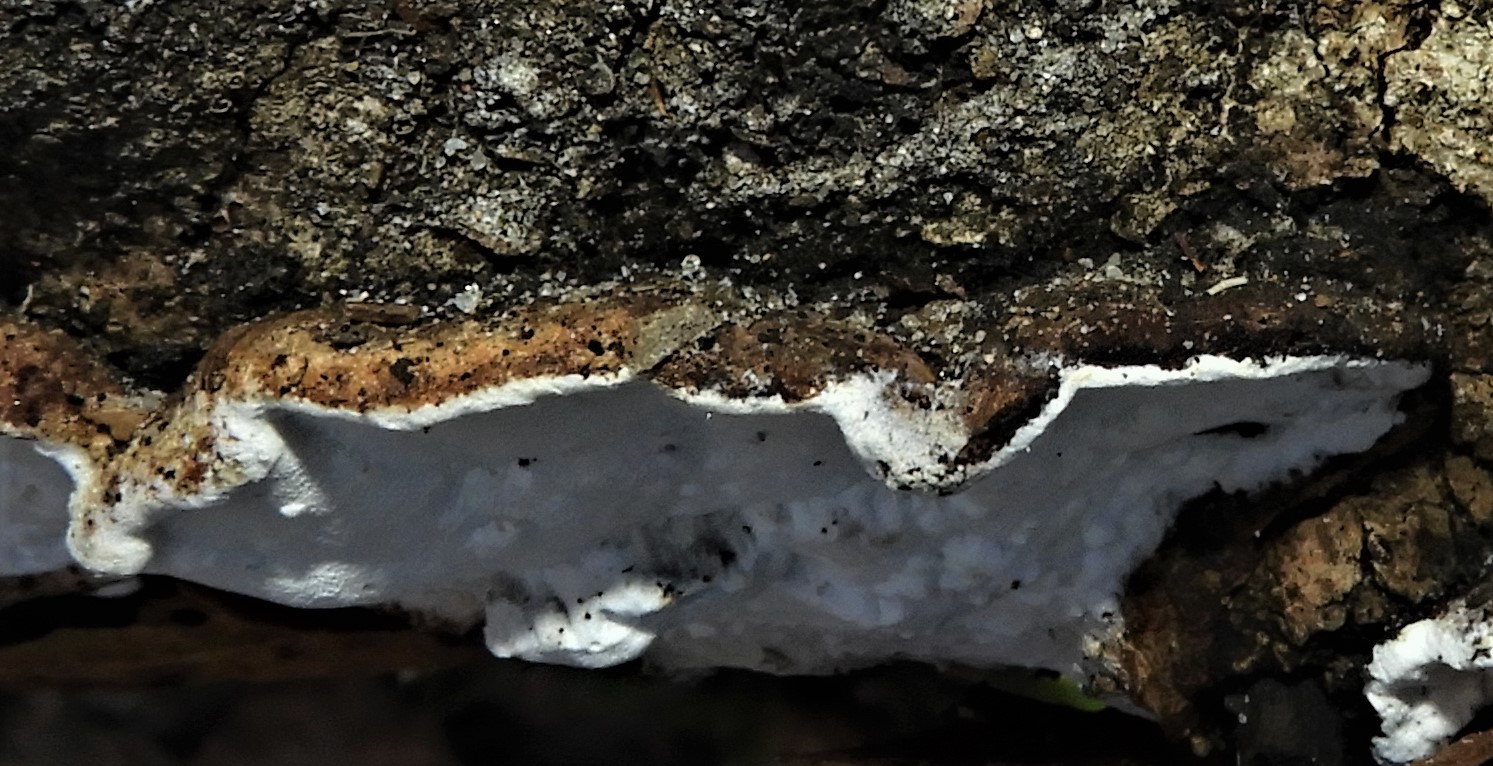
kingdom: Fungi
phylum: Basidiomycota
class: Agaricomycetes
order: Russulales
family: Bondarzewiaceae
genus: Heterobasidion
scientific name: Heterobasidion annosum
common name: almindelig rodfordærver
